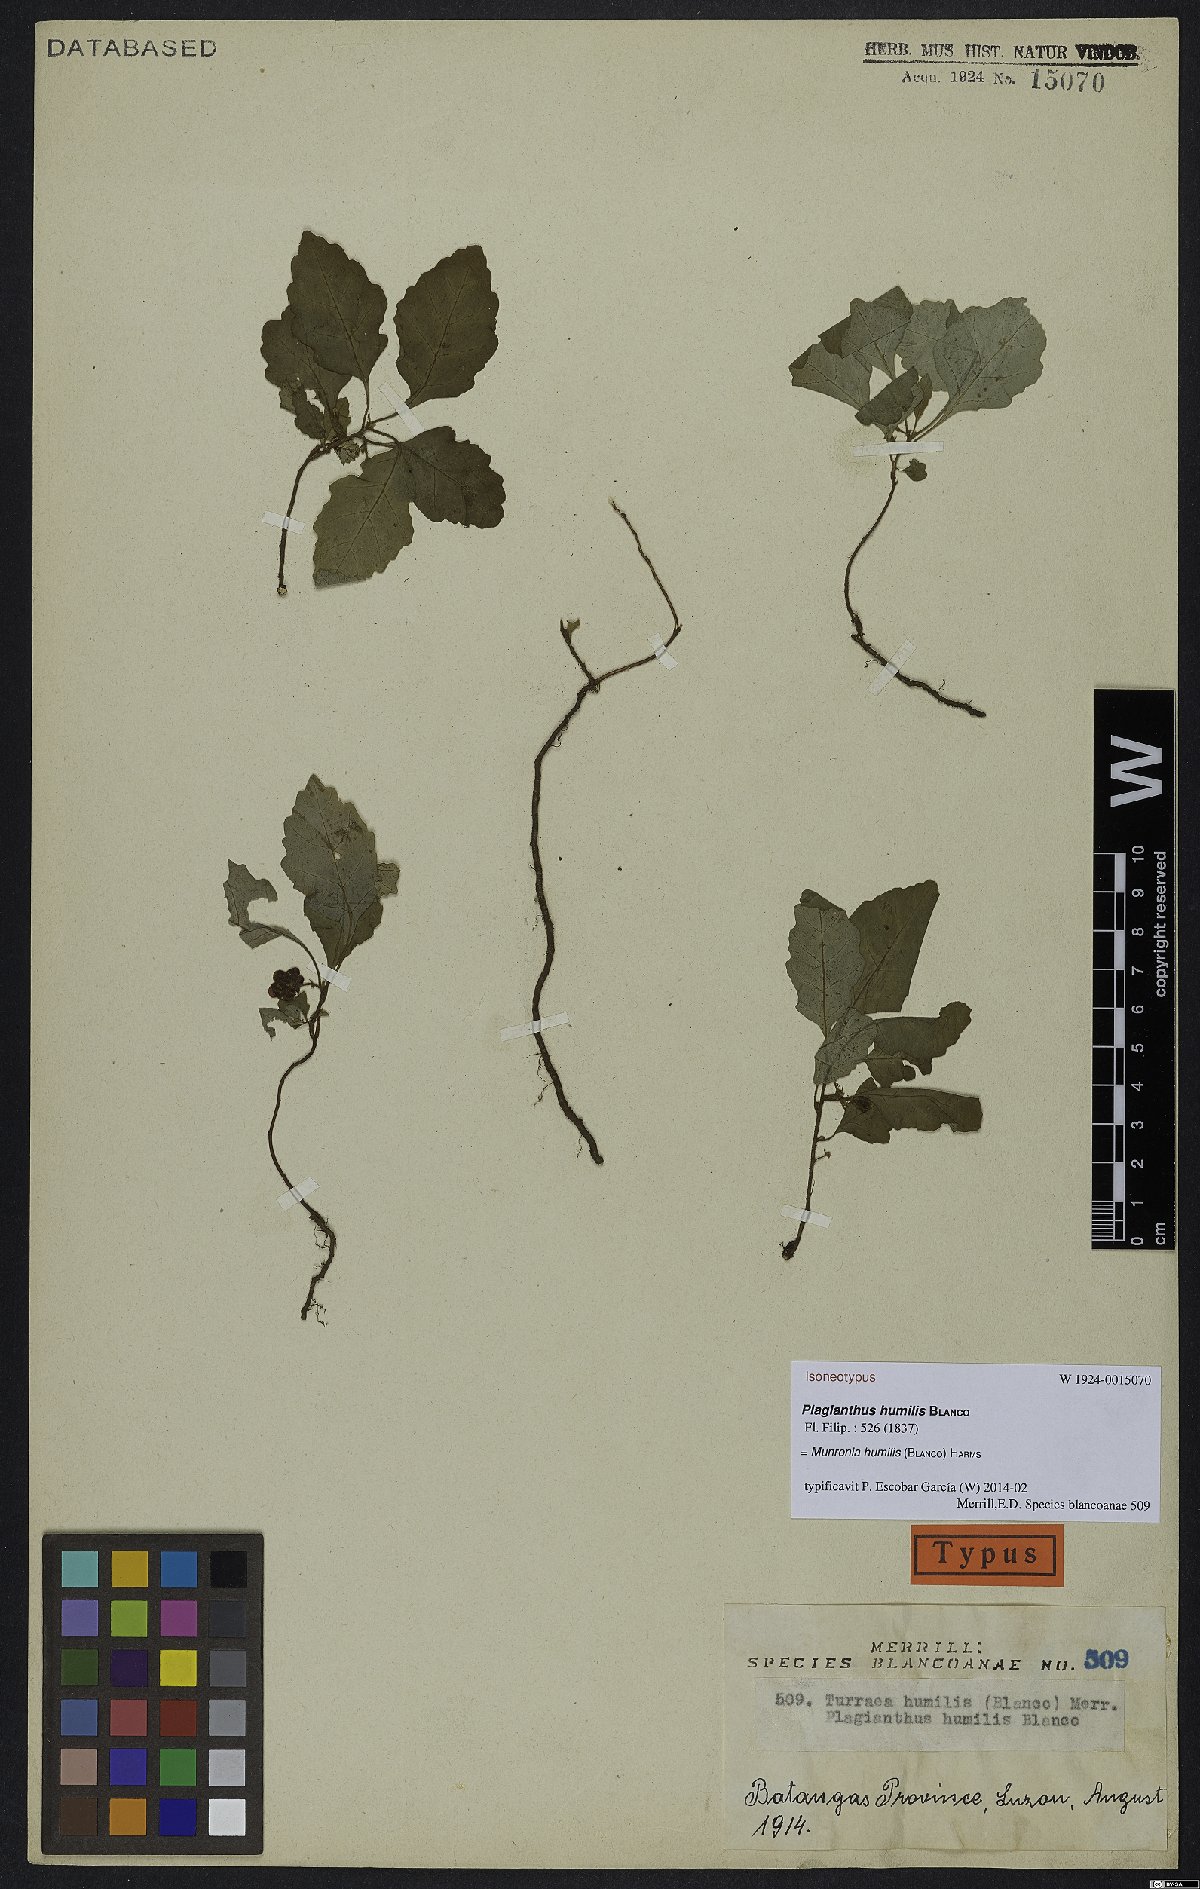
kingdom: Plantae
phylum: Tracheophyta
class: Magnoliopsida
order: Sapindales
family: Meliaceae
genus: Munronia
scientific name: Munronia humilis
